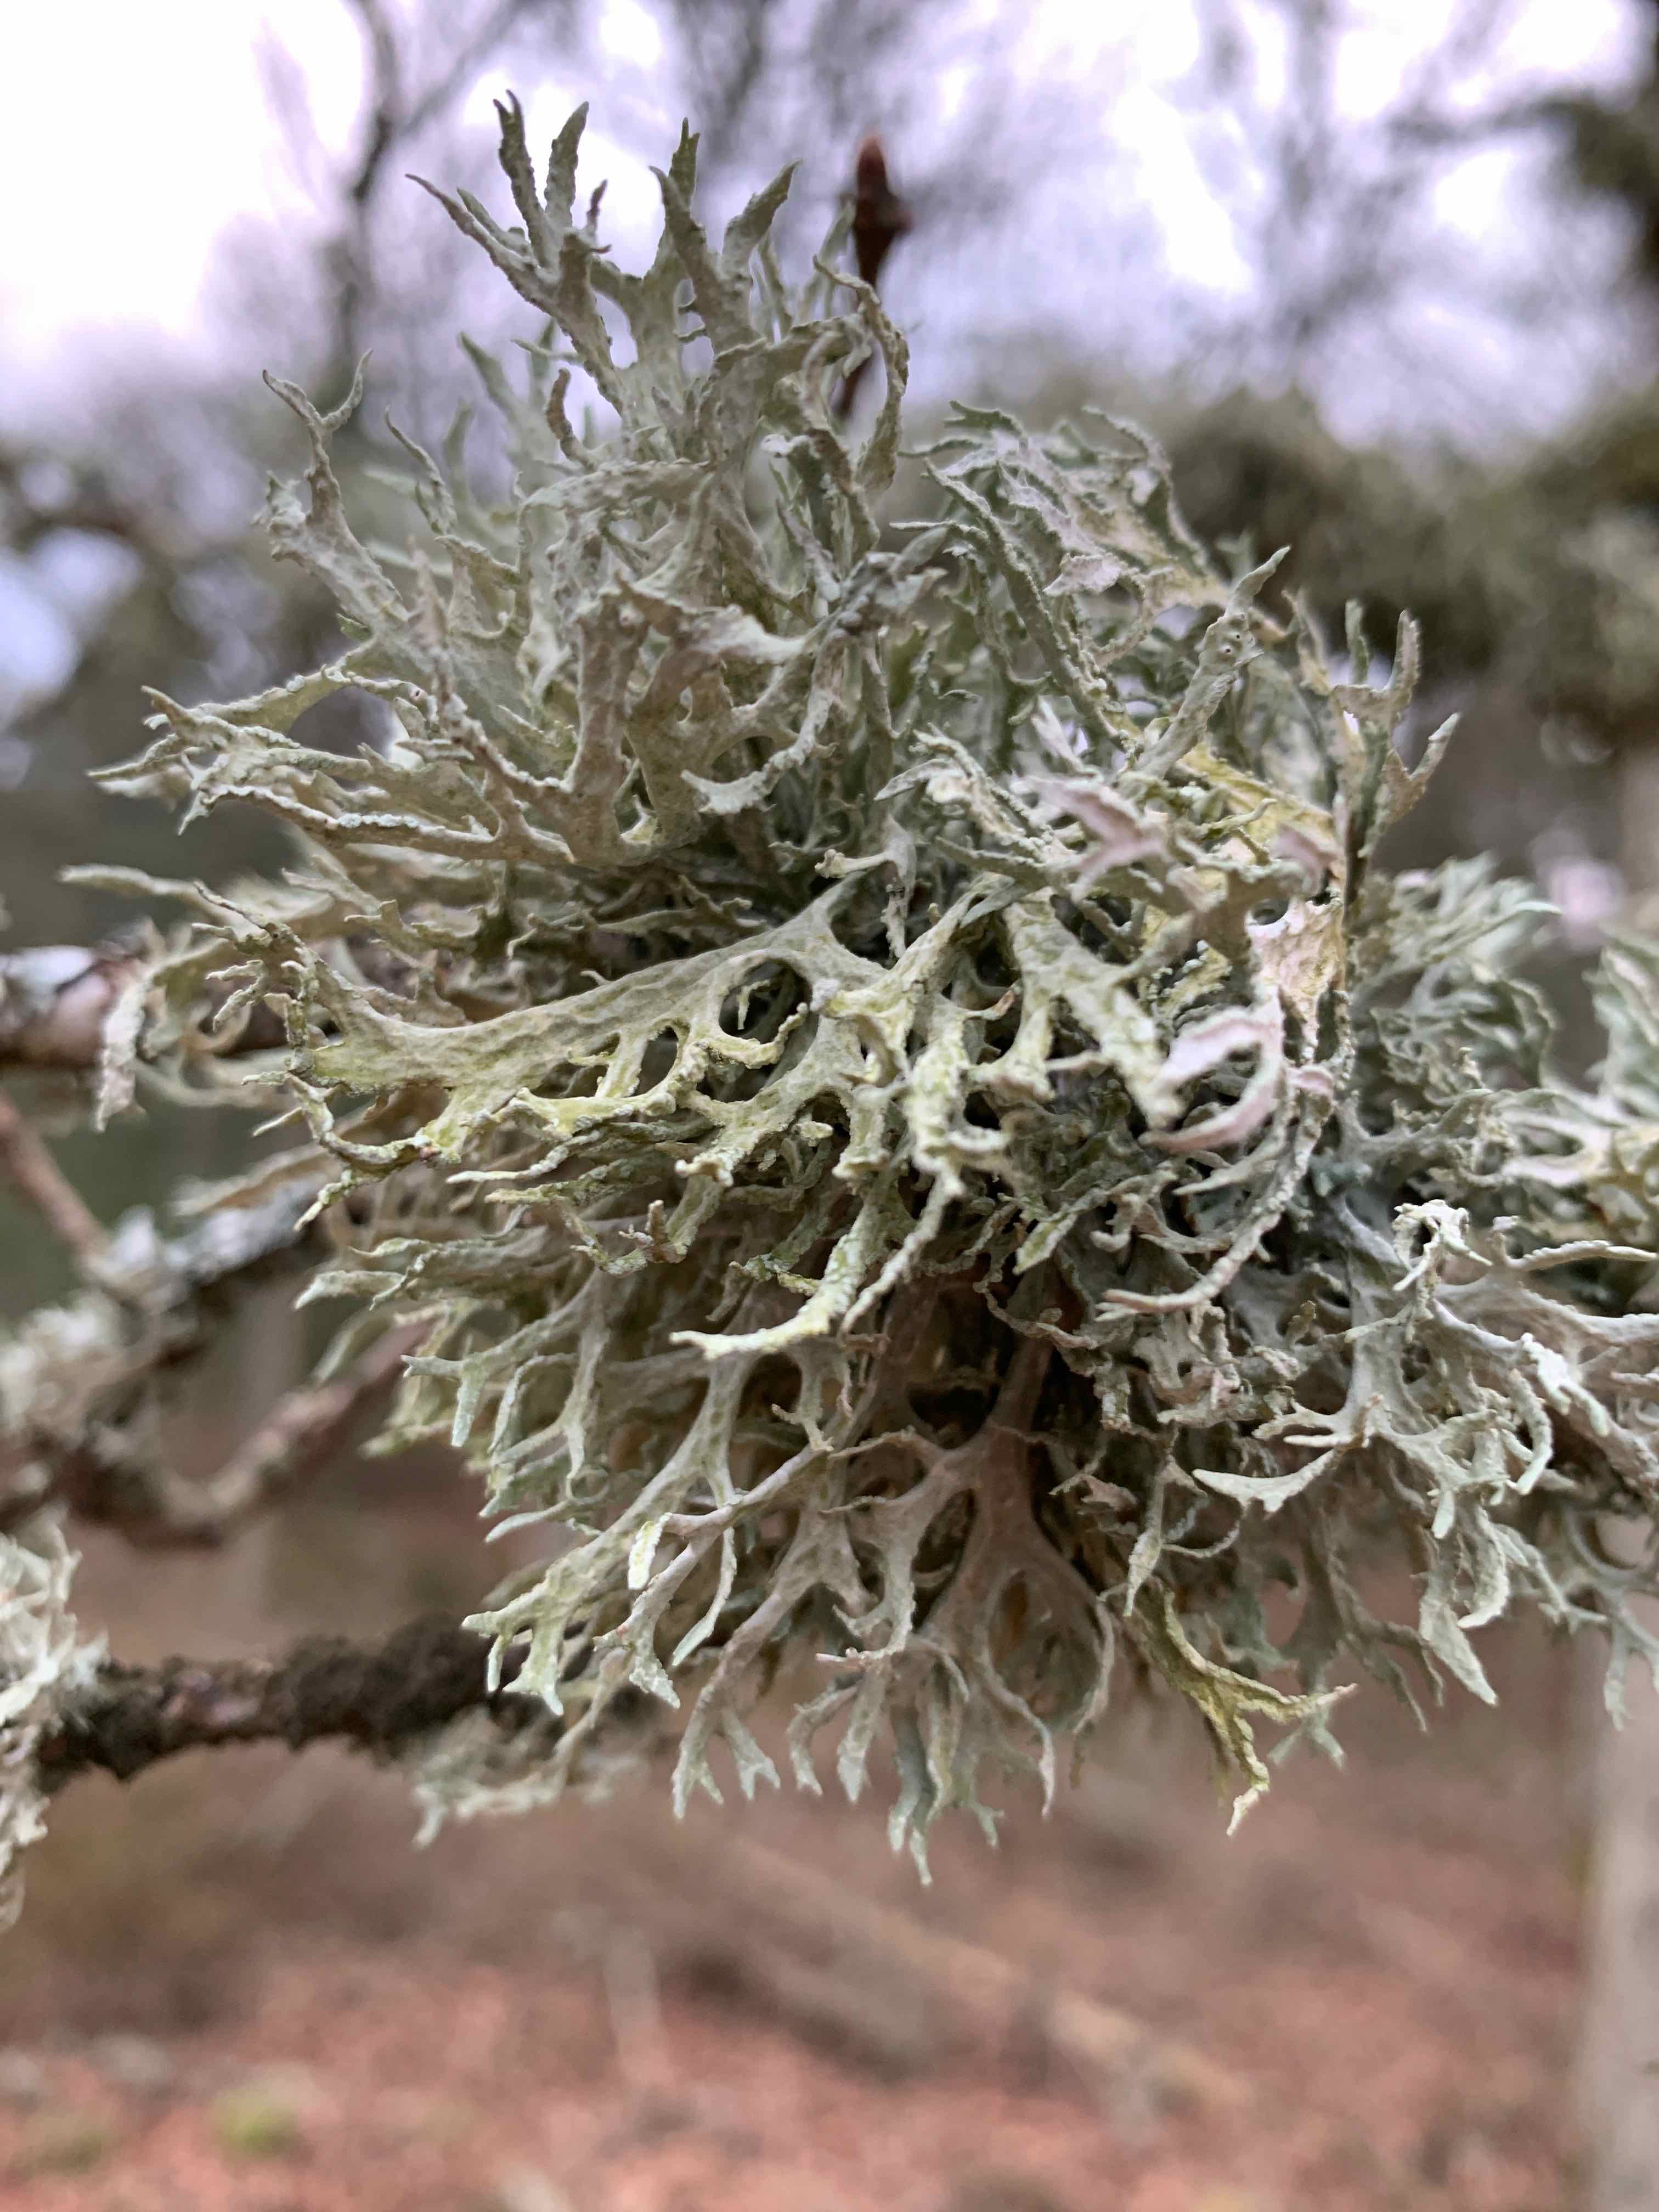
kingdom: Fungi
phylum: Ascomycota
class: Lecanoromycetes
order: Lecanorales
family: Parmeliaceae
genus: Evernia
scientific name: Evernia prunastri
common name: almindelig slåenlav
